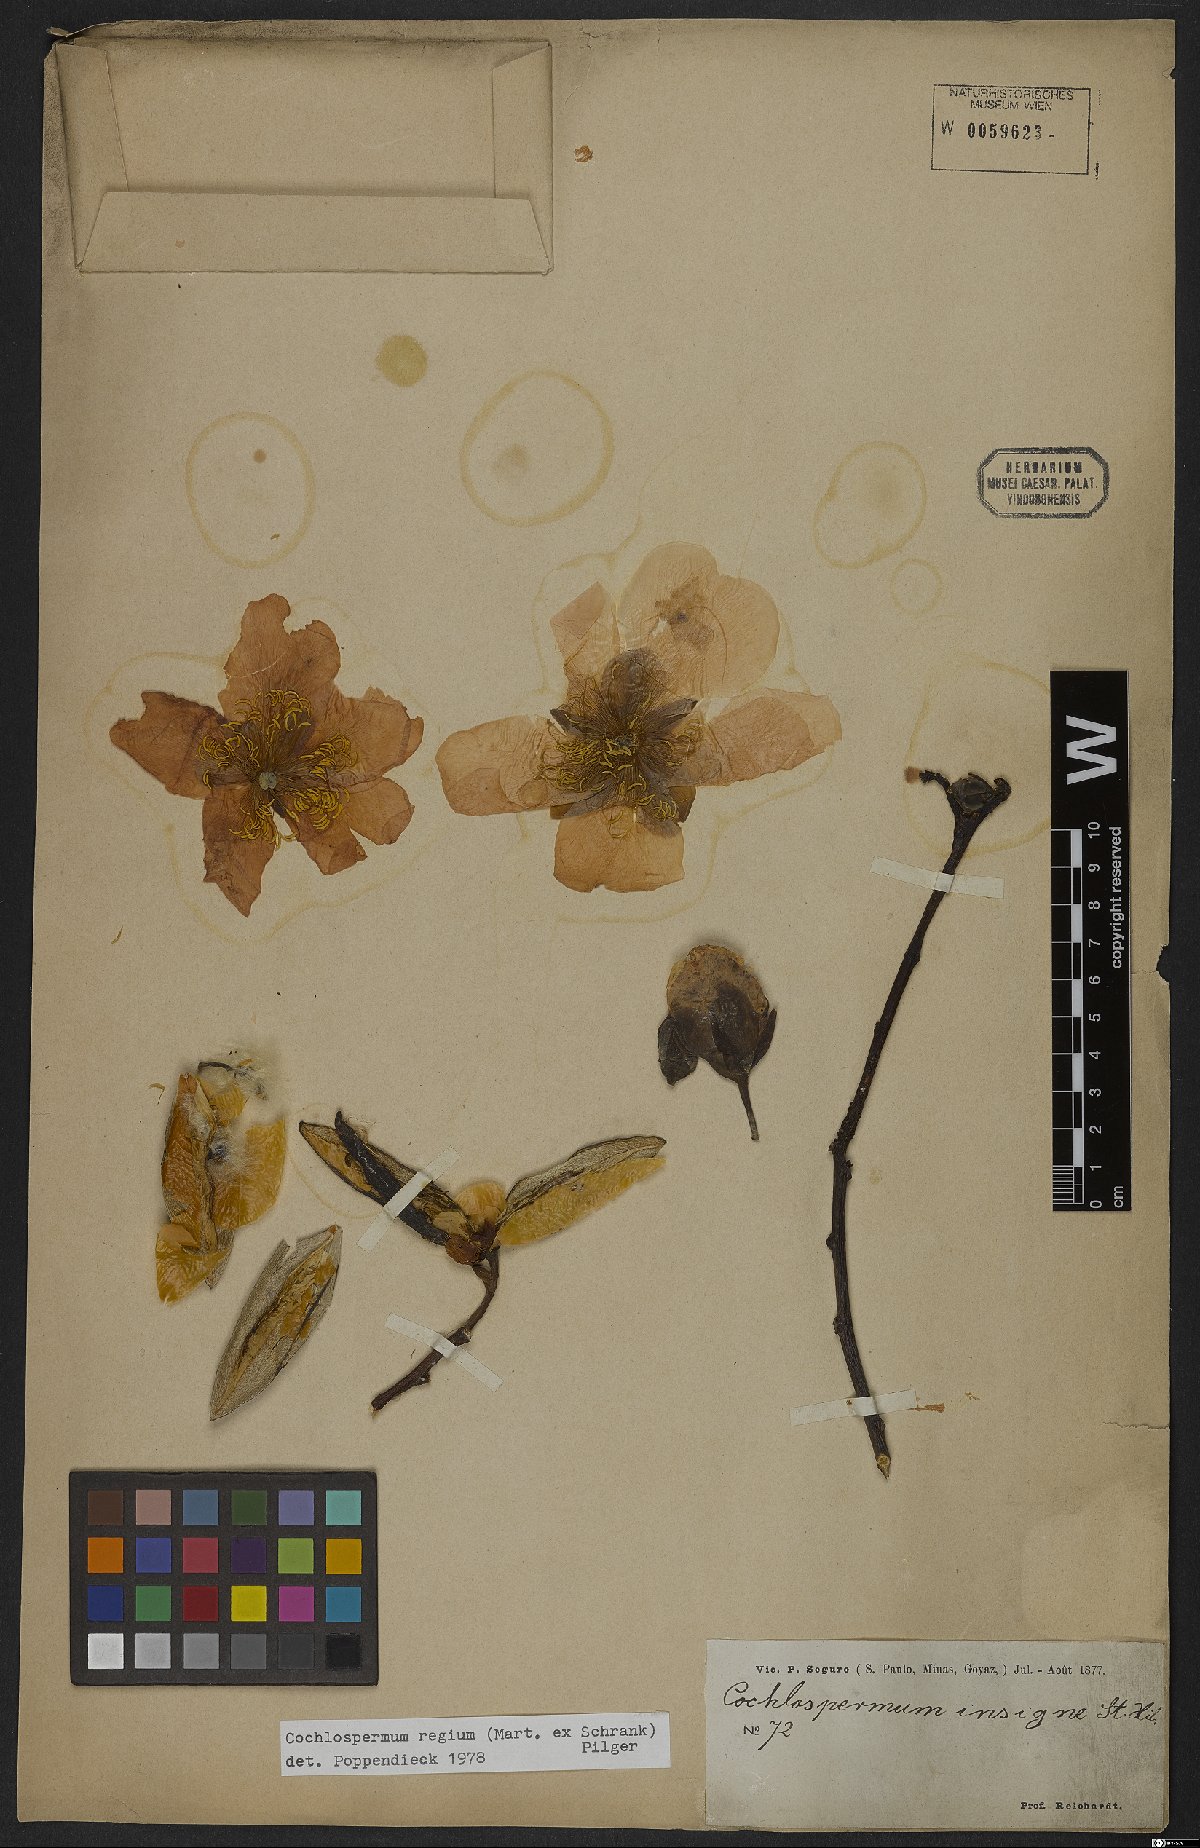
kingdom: Plantae
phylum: Tracheophyta
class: Magnoliopsida
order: Malvales
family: Cochlospermaceae
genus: Cochlospermum
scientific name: Cochlospermum regium
